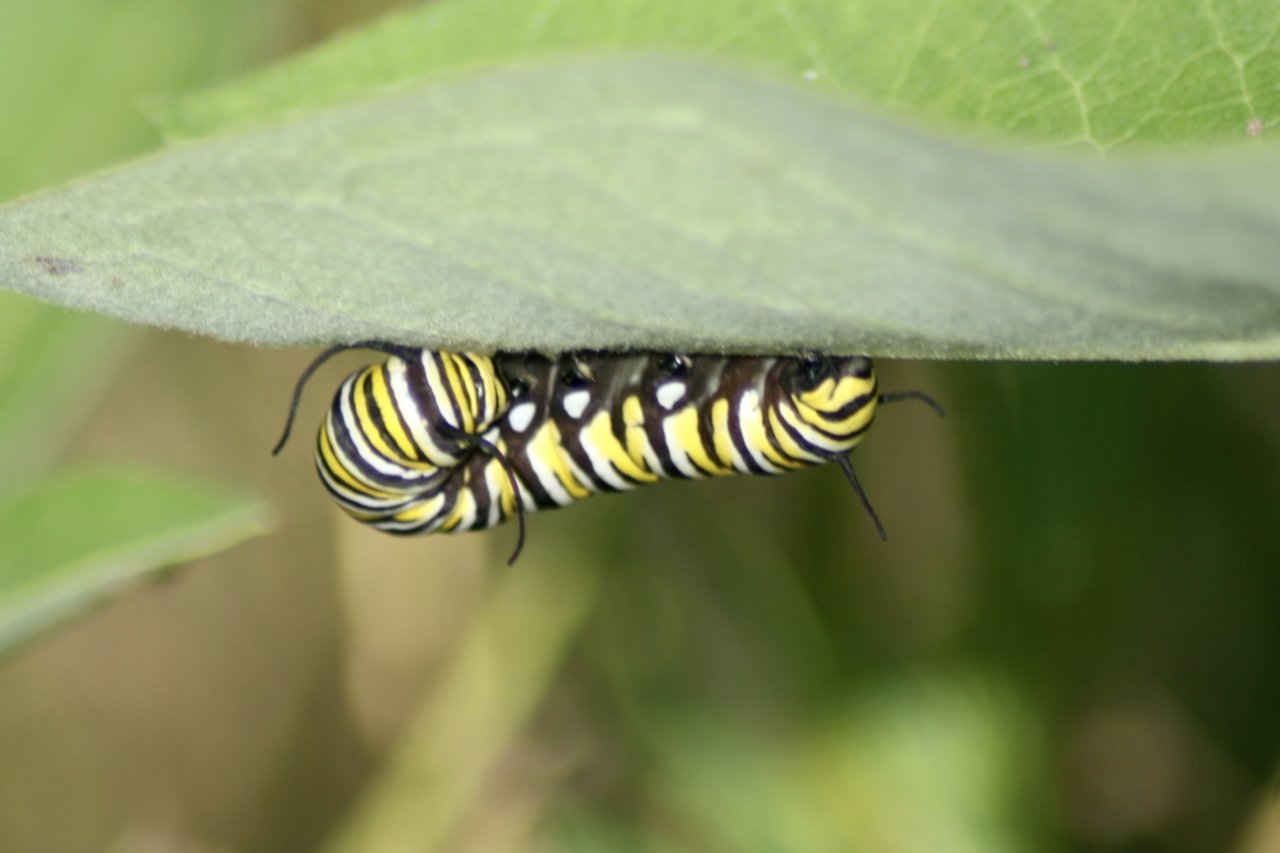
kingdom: Animalia
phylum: Arthropoda
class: Insecta
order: Lepidoptera
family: Nymphalidae
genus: Danaus
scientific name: Danaus plexippus
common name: Monarch
